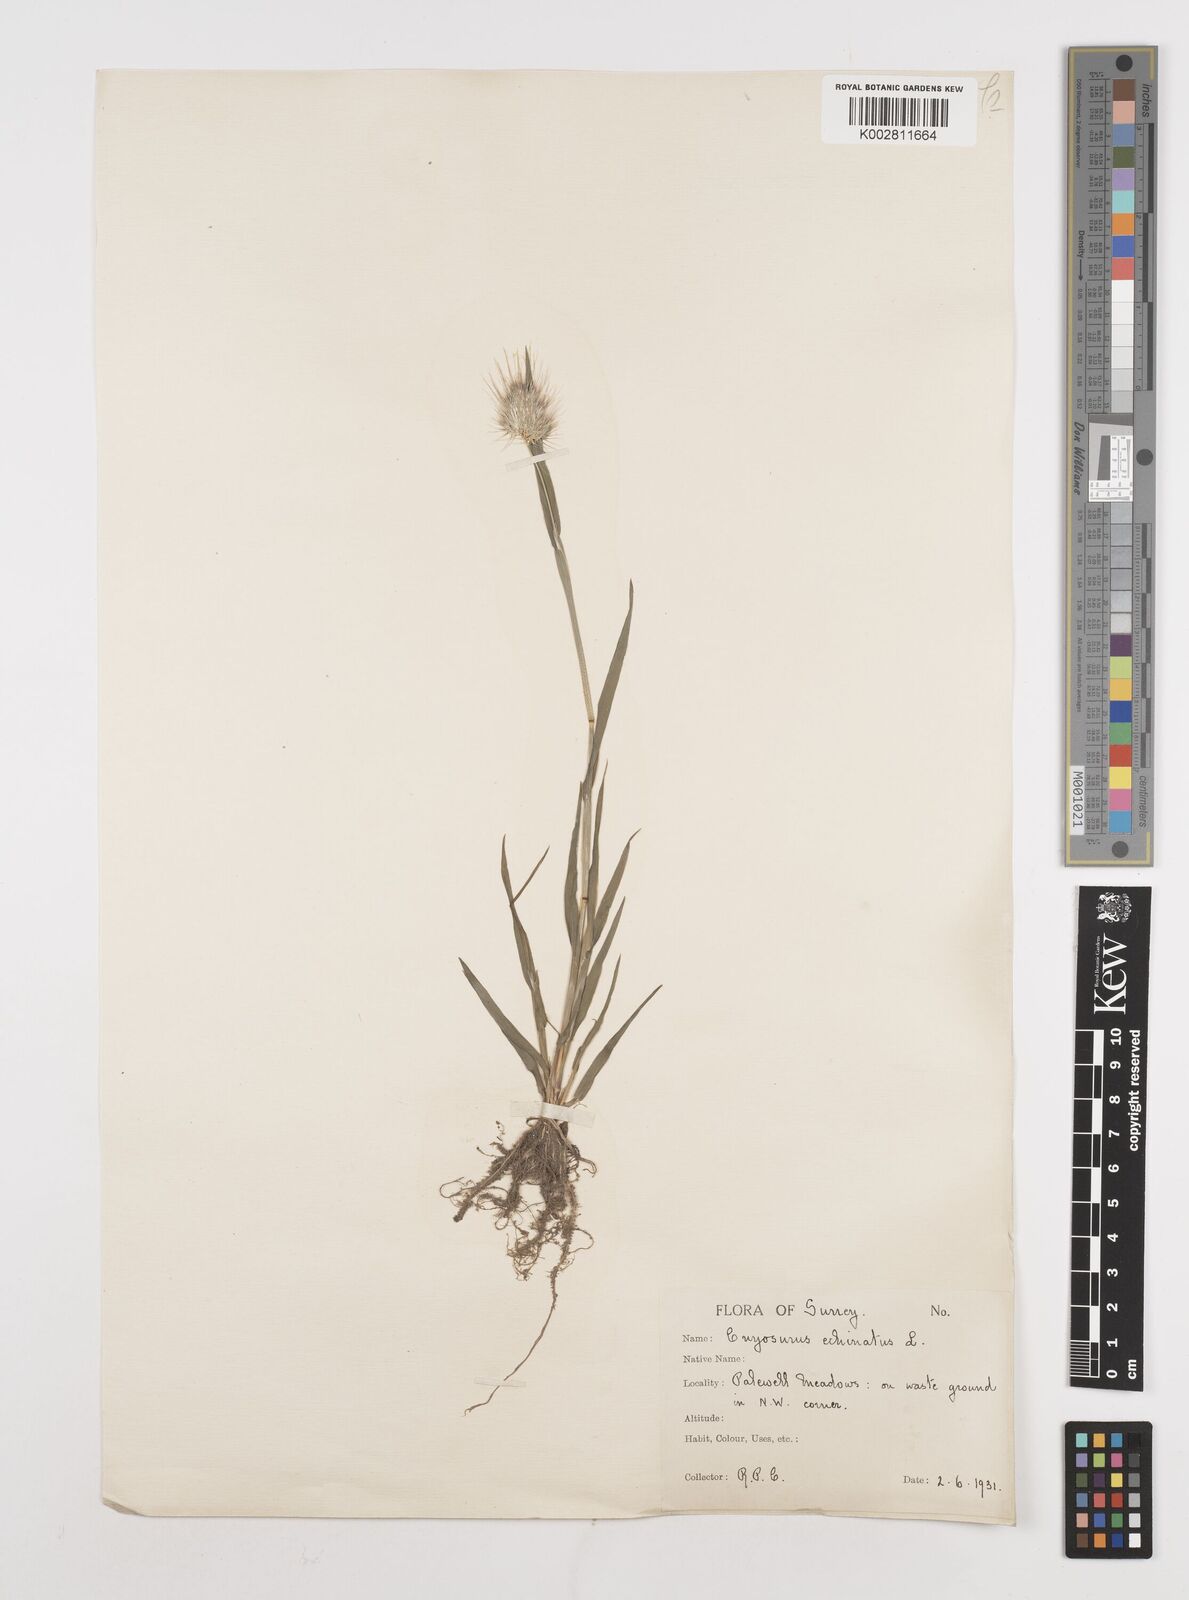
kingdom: Plantae
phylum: Tracheophyta
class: Liliopsida
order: Poales
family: Poaceae
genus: Cynosurus
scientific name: Cynosurus echinatus
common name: Rough dog's-tail
